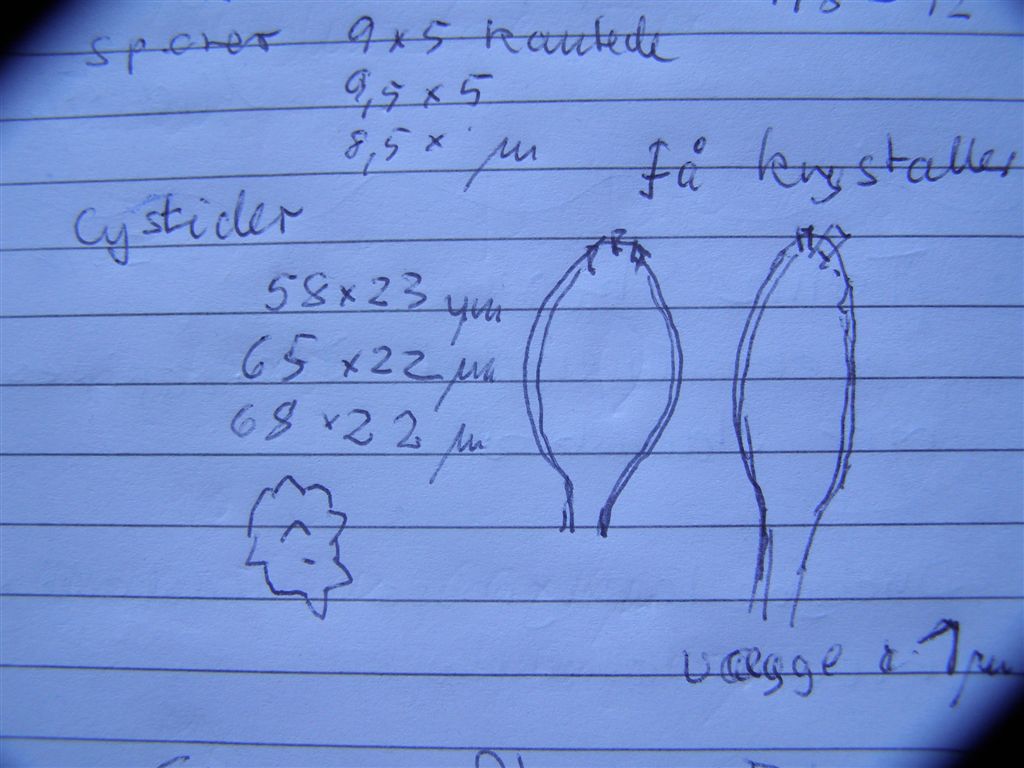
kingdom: Fungi
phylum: Basidiomycota
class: Agaricomycetes
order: Agaricales
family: Inocybaceae
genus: Inocybe
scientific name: Inocybe stellatospora
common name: spidsskællet trævlhat
